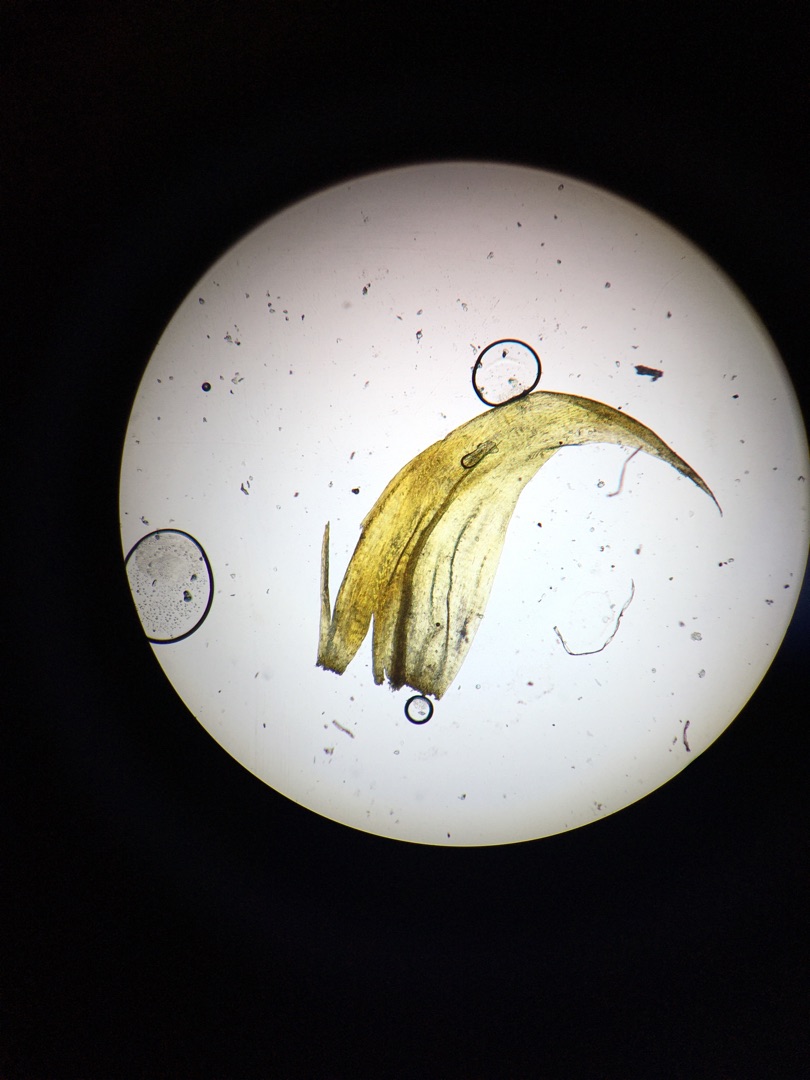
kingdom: Plantae
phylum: Bryophyta
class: Bryopsida
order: Hypnales
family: Scorpidiaceae
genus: Hamatocaulis
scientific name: Hamatocaulis vernicosus
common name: Blank seglmos
